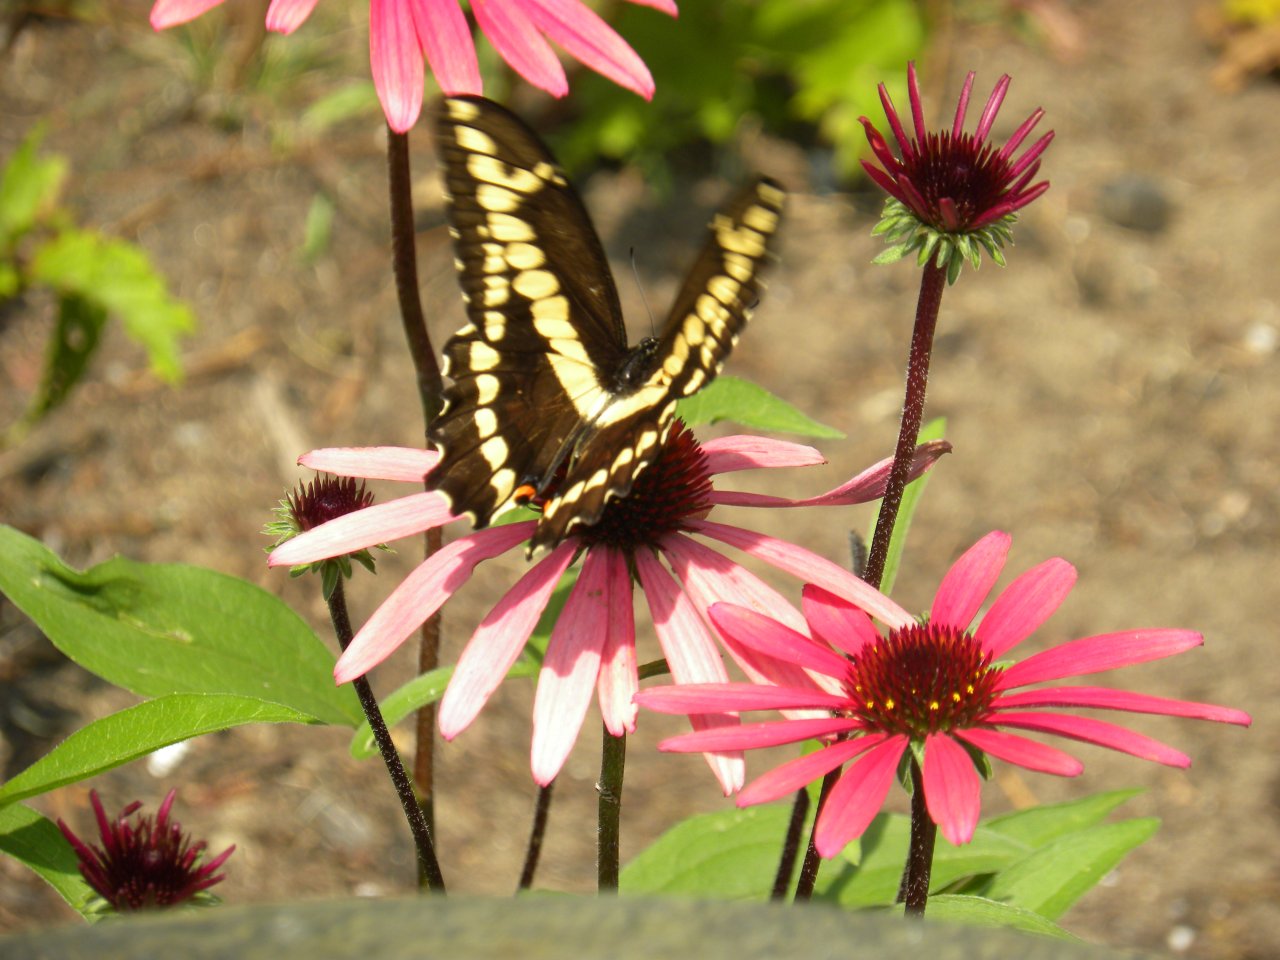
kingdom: Animalia
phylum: Arthropoda
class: Insecta
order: Lepidoptera
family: Papilionidae
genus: Papilio
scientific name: Papilio cresphontes
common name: Eastern Giant Swallowtail
